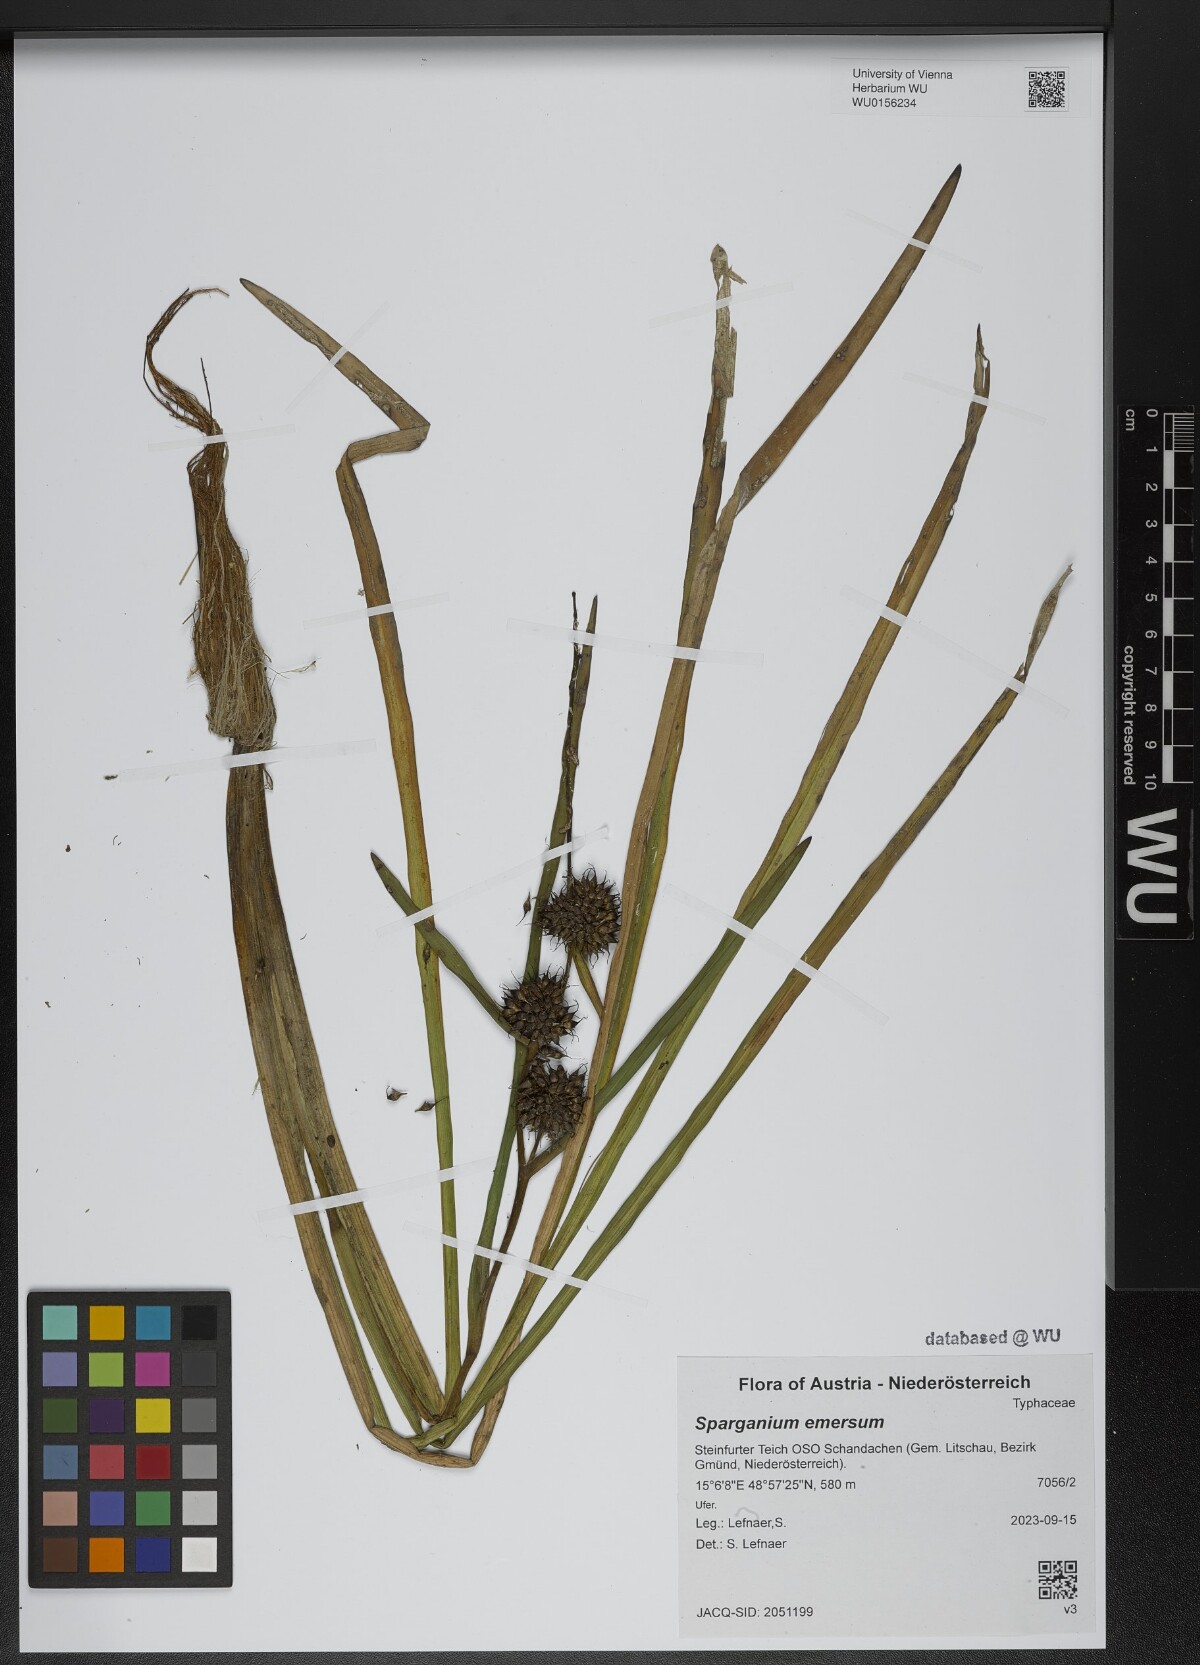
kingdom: Plantae
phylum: Tracheophyta
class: Liliopsida
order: Poales
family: Typhaceae
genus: Sparganium
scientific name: Sparganium emersum
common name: Unbranched bur-reed
